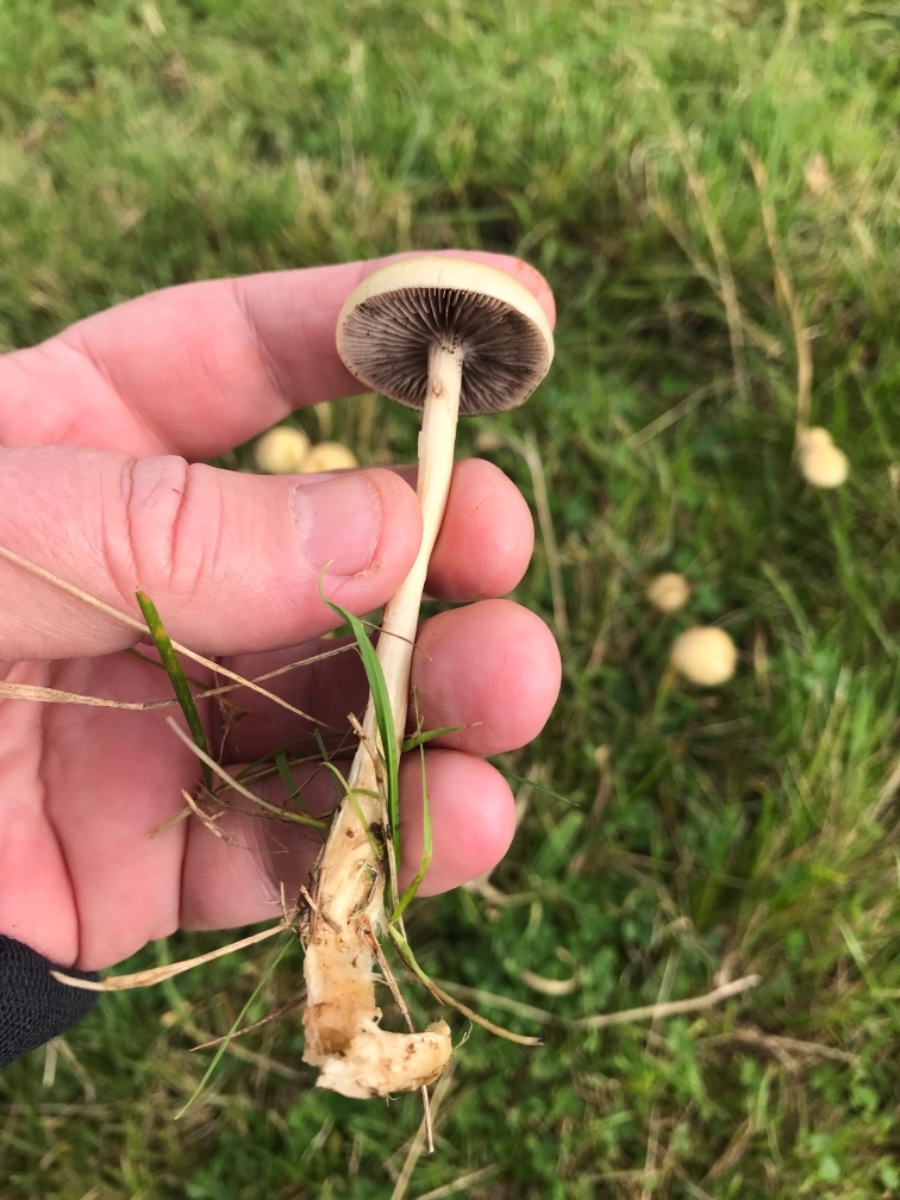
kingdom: Fungi
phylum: Basidiomycota
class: Agaricomycetes
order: Agaricales
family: Strophariaceae
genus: Protostropharia
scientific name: Protostropharia semiglobata
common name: halvkugleformet bredblad
